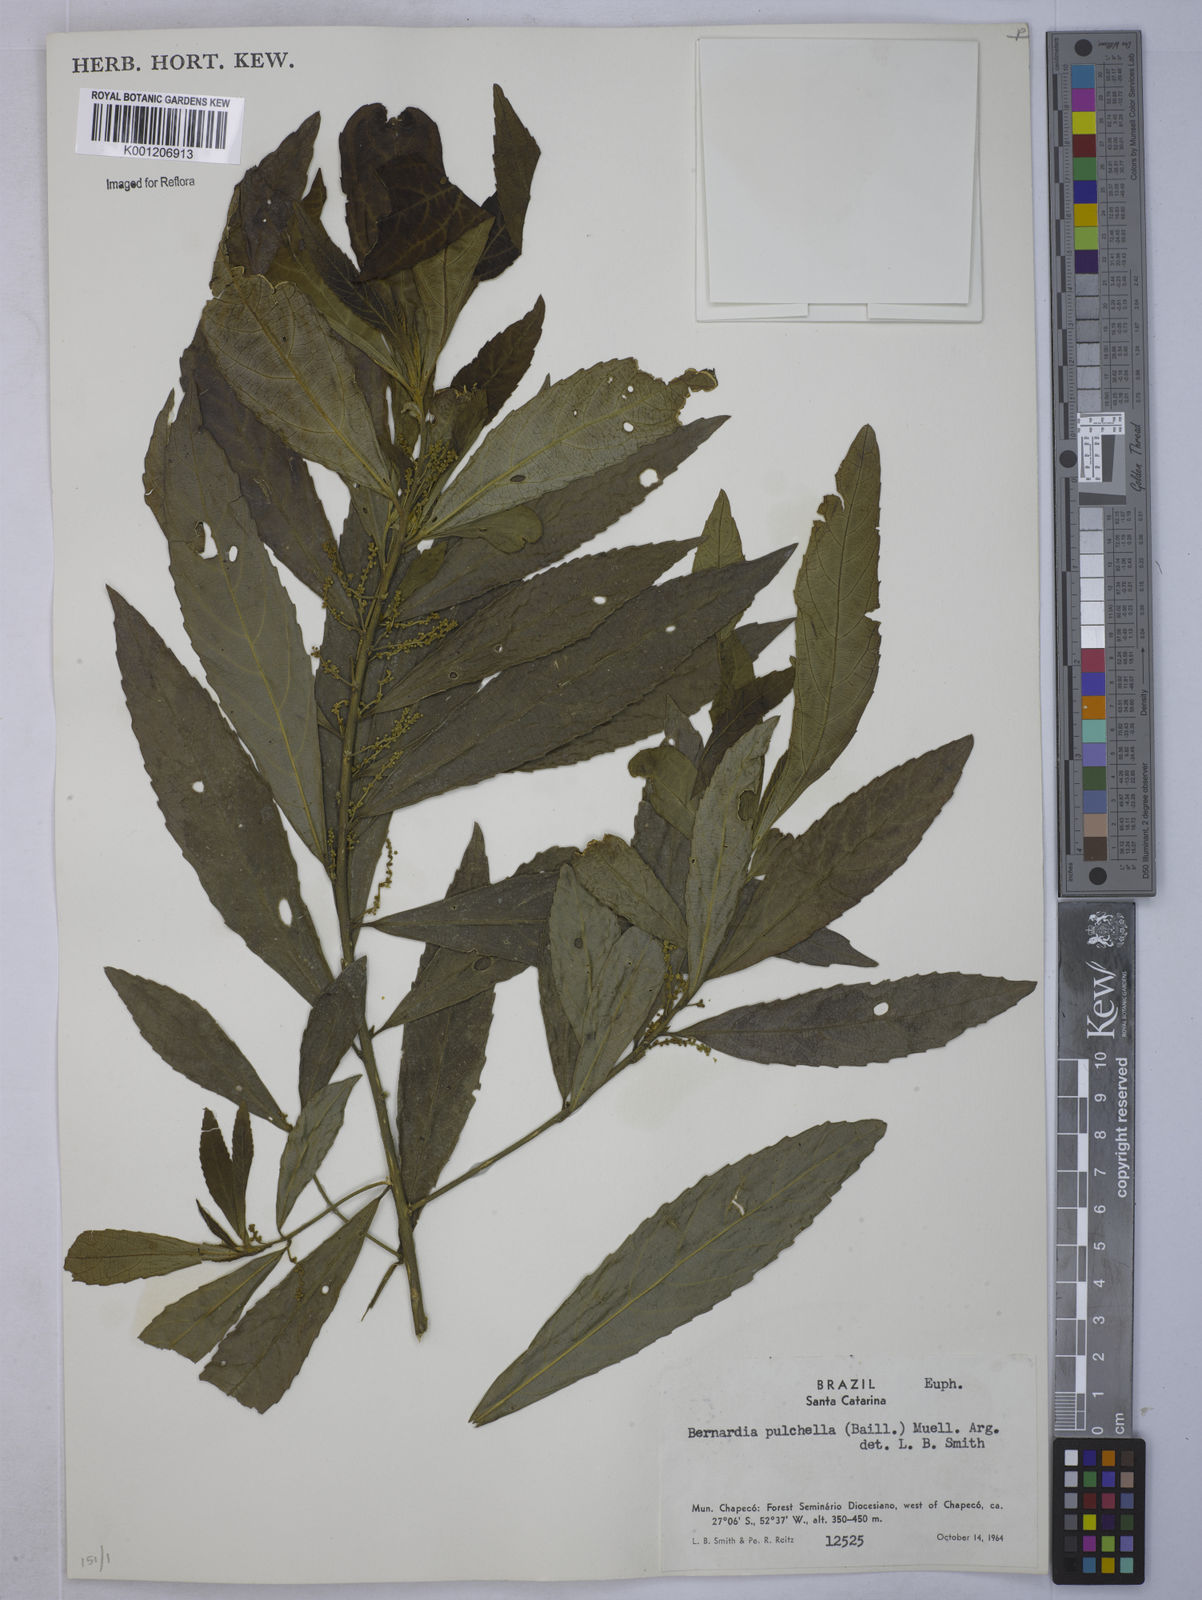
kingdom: Plantae
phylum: Tracheophyta
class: Magnoliopsida
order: Malpighiales
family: Euphorbiaceae
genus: Bernardia
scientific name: Bernardia
